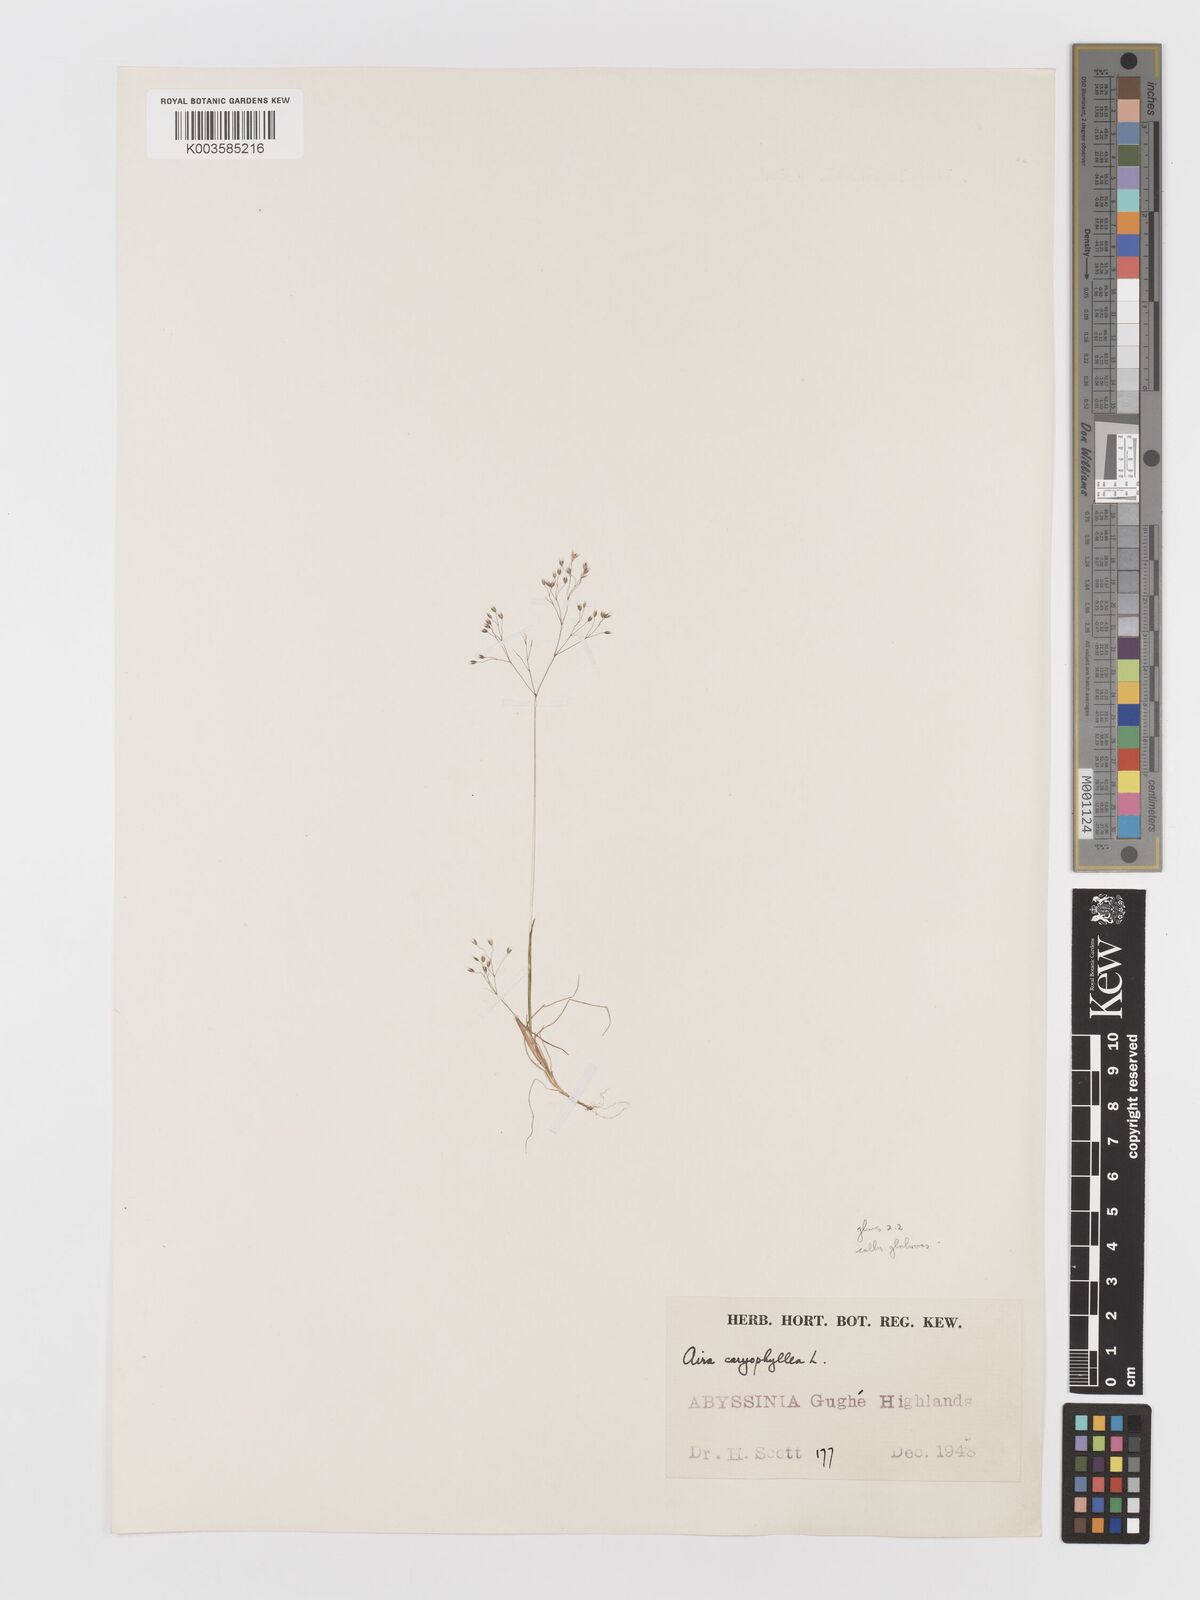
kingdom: Plantae
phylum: Tracheophyta
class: Liliopsida
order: Poales
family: Poaceae
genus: Aira
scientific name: Aira caryophyllea
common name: Silver hairgrass
